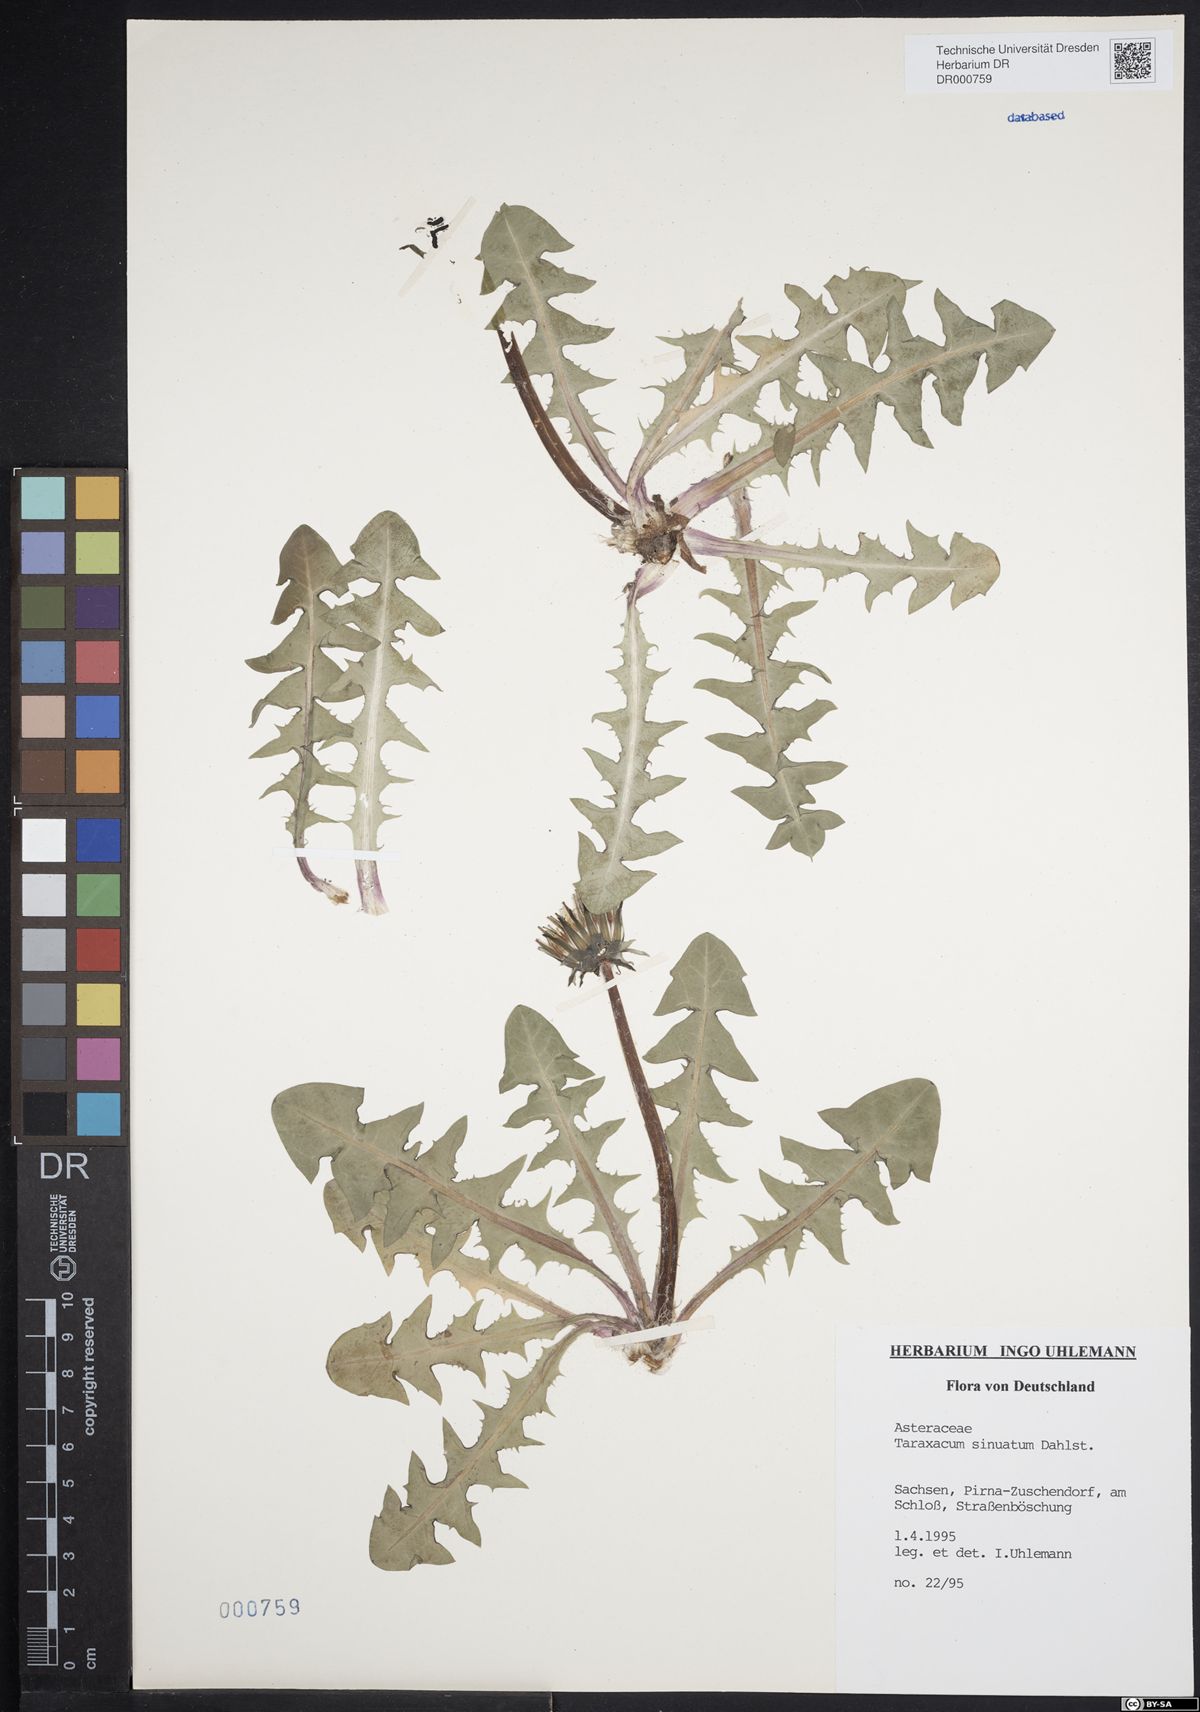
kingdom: Plantae
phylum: Tracheophyta
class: Magnoliopsida
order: Asterales
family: Asteraceae
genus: Taraxacum
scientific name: Taraxacum sinuatum
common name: Sinuate-lobed dandelion
